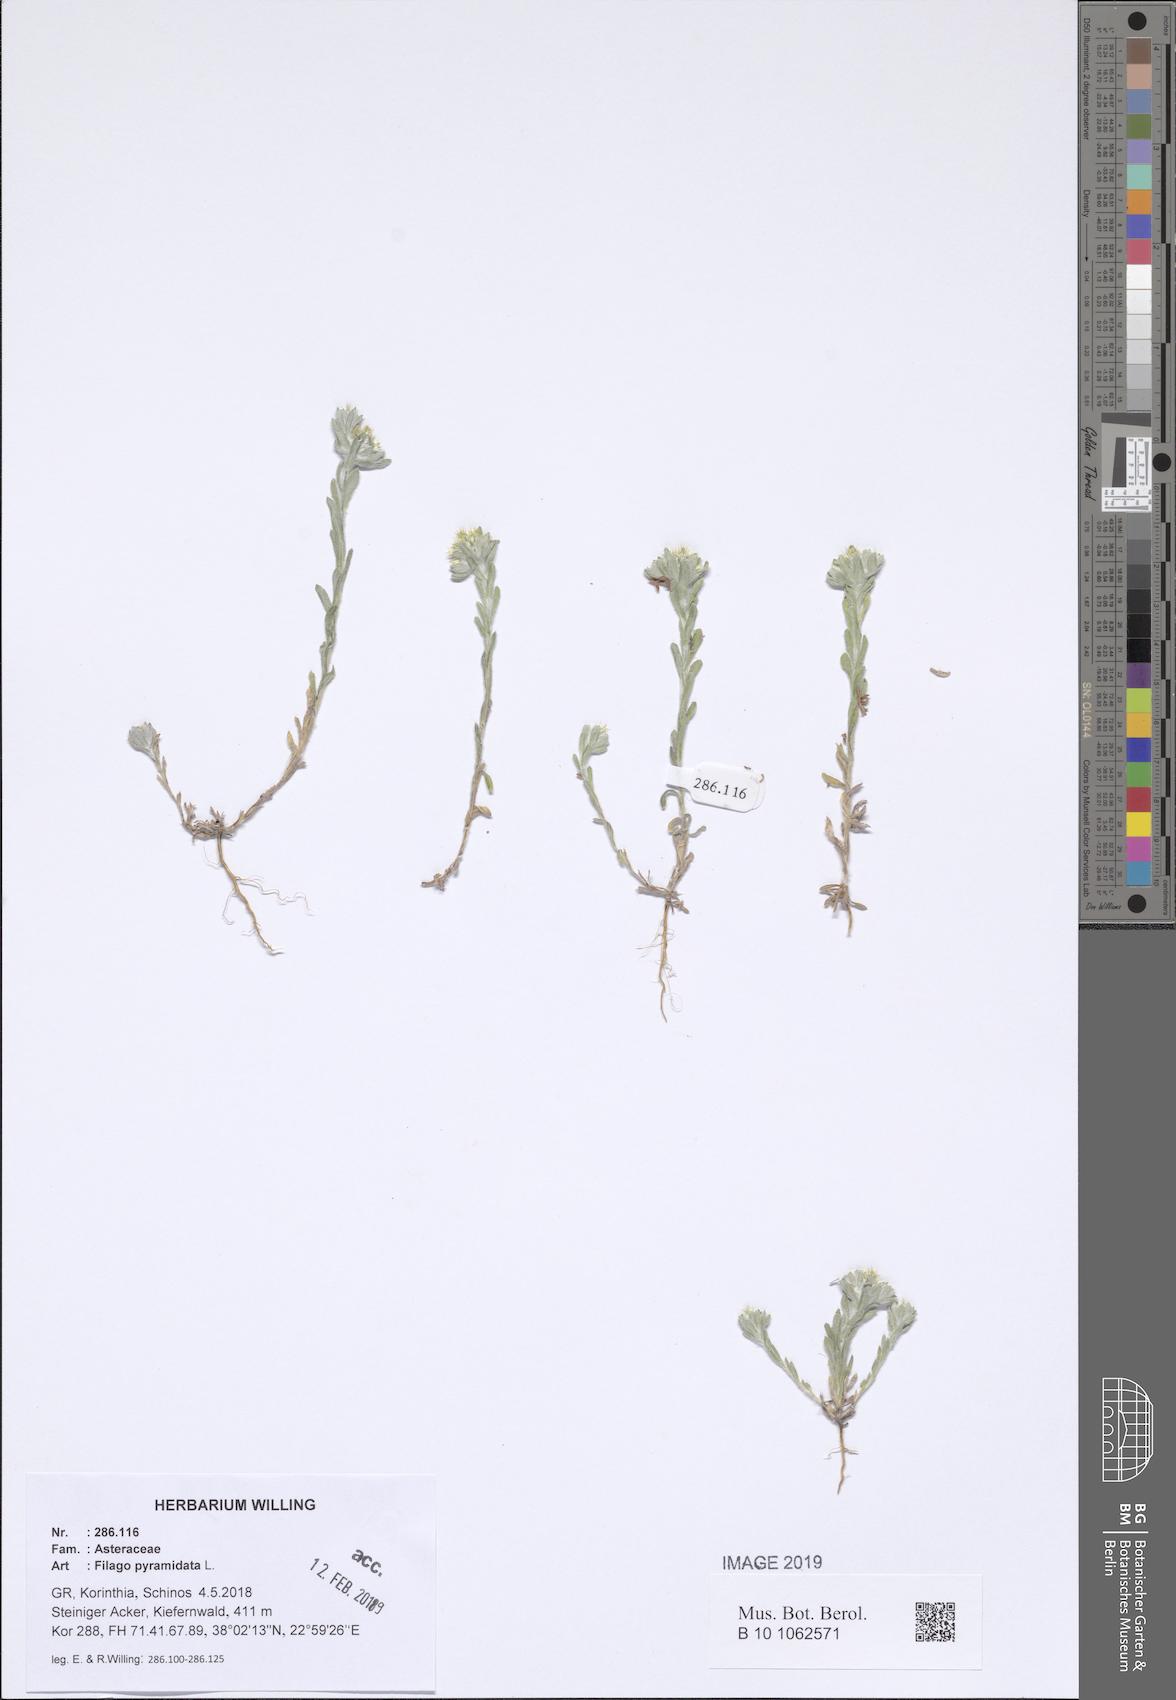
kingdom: Plantae
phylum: Tracheophyta
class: Magnoliopsida
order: Asterales
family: Asteraceae
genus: Filago
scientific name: Filago pyramidata
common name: Broad-leaved cudweed
